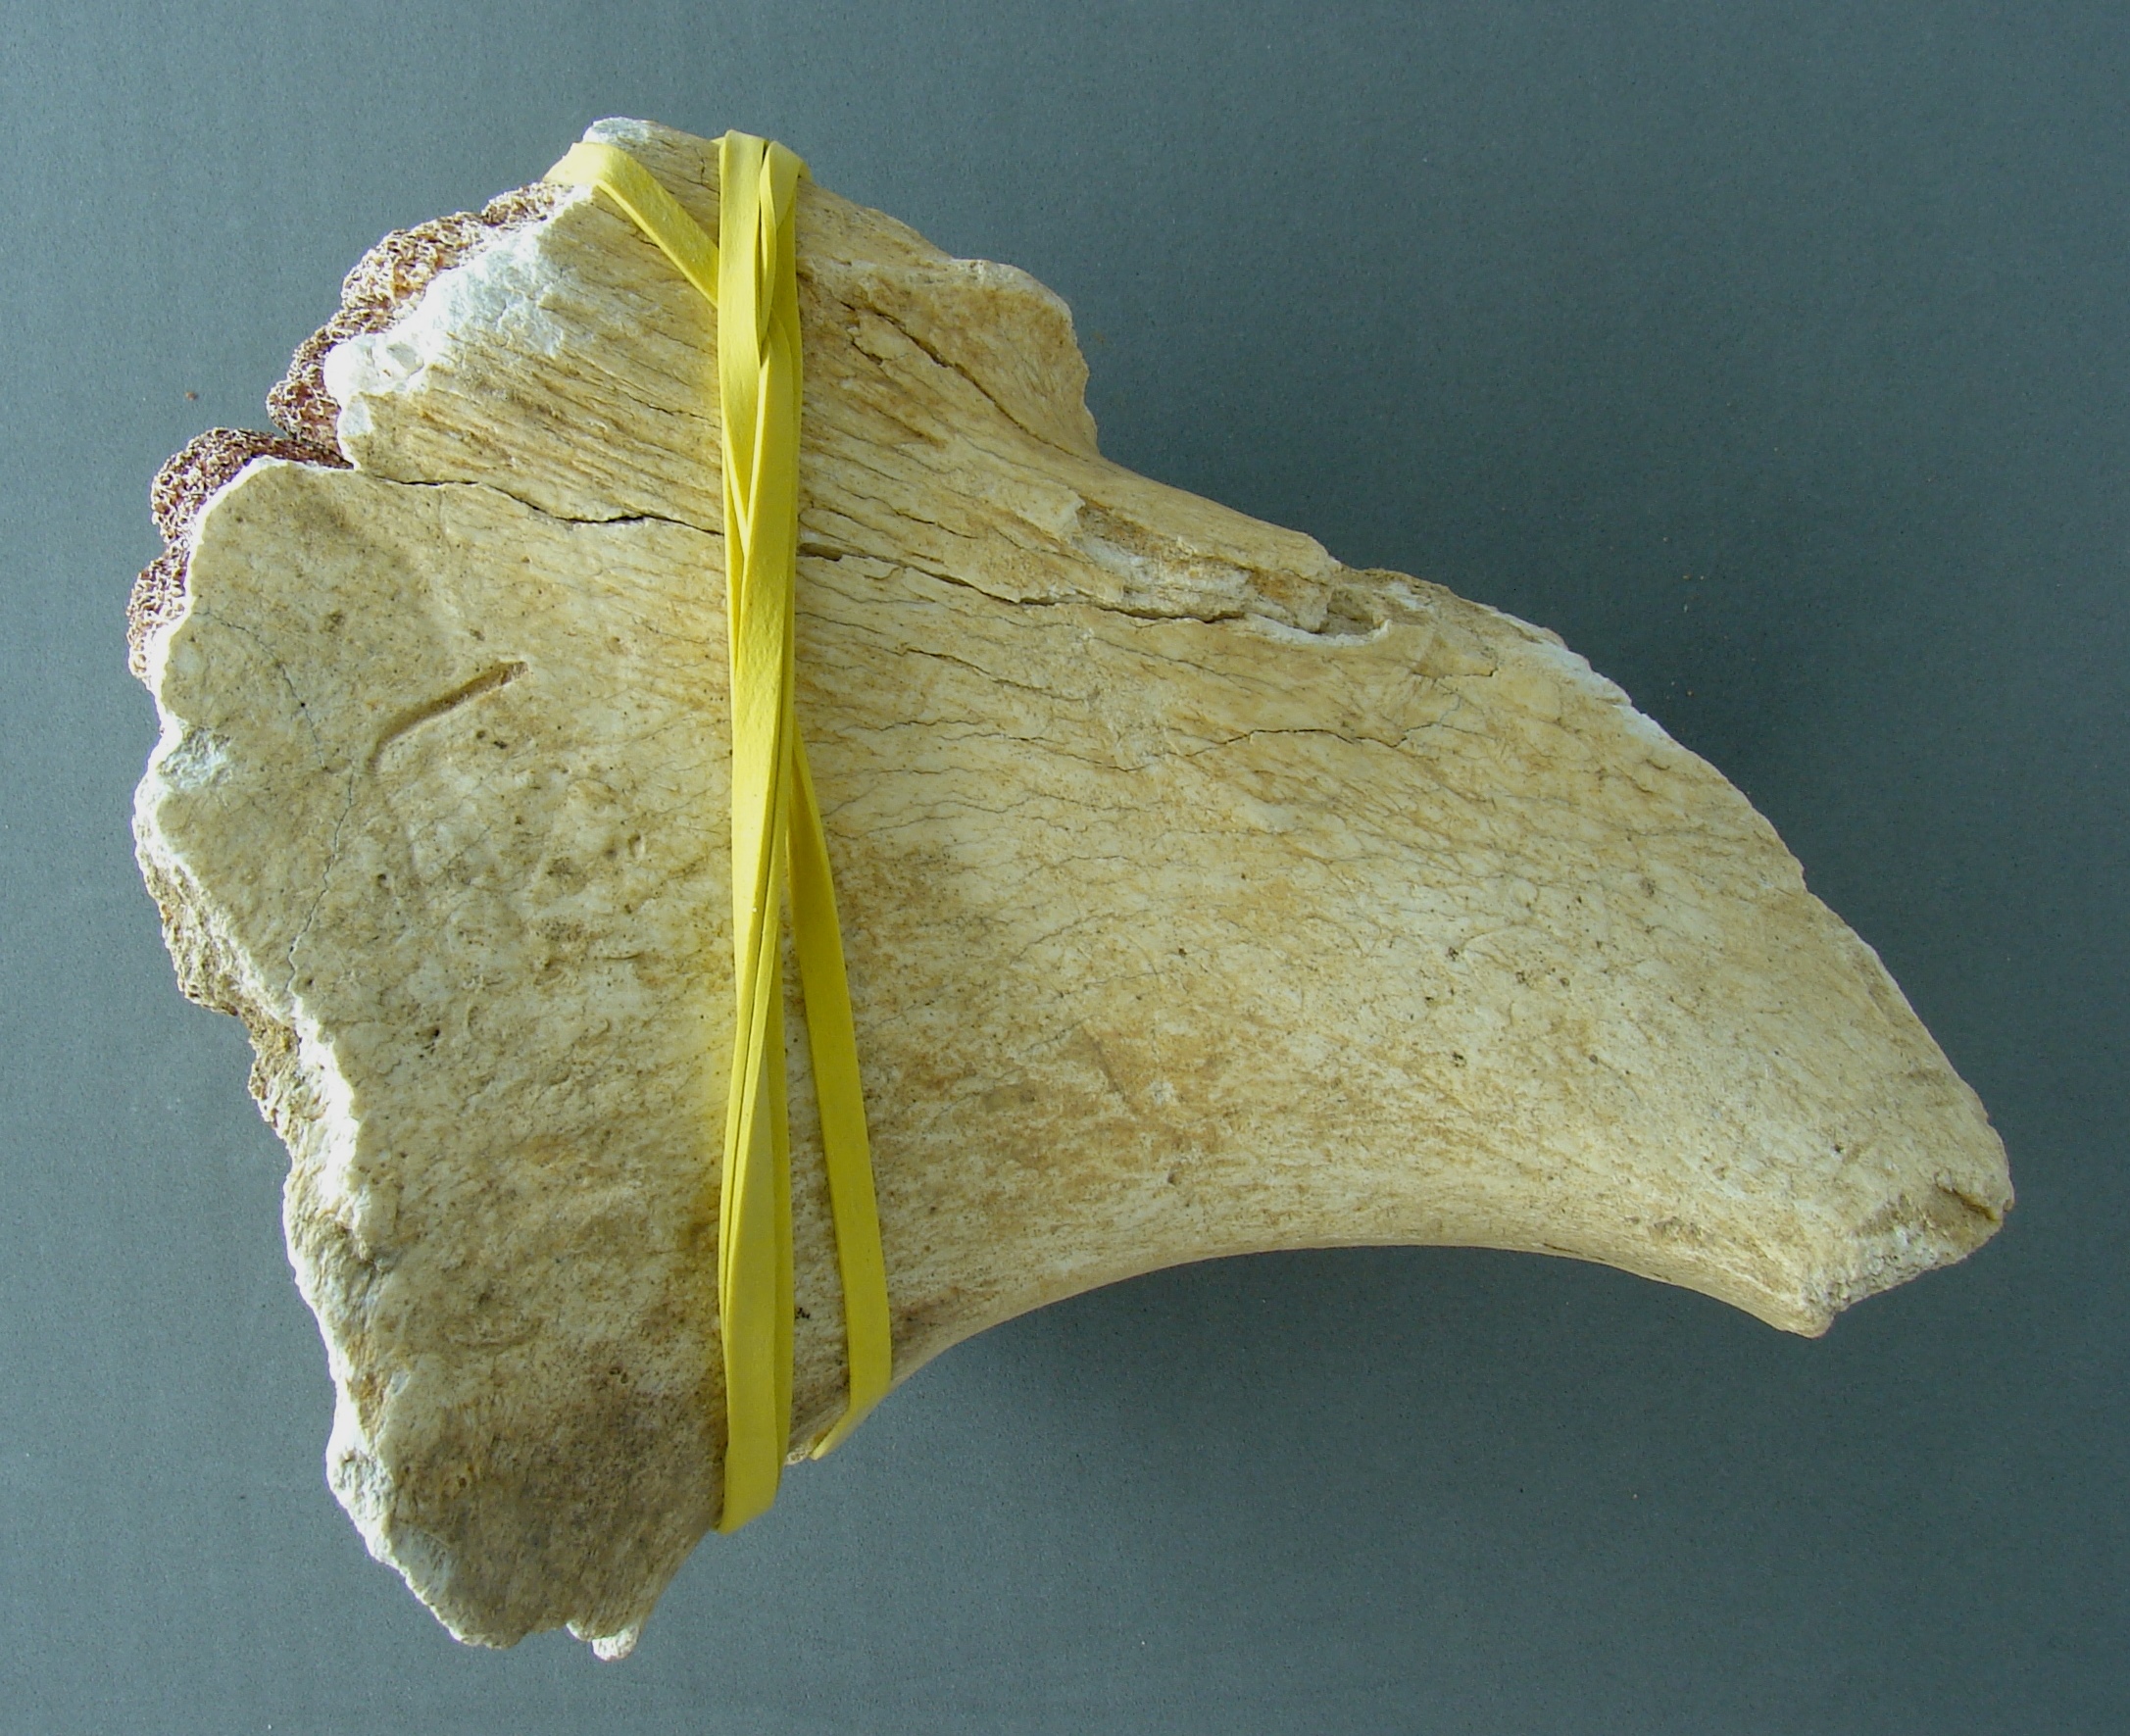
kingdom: Animalia
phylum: Chordata
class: Mammalia
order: Perissodactyla
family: Rhinocerotidae
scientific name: Rhinocerotidae
